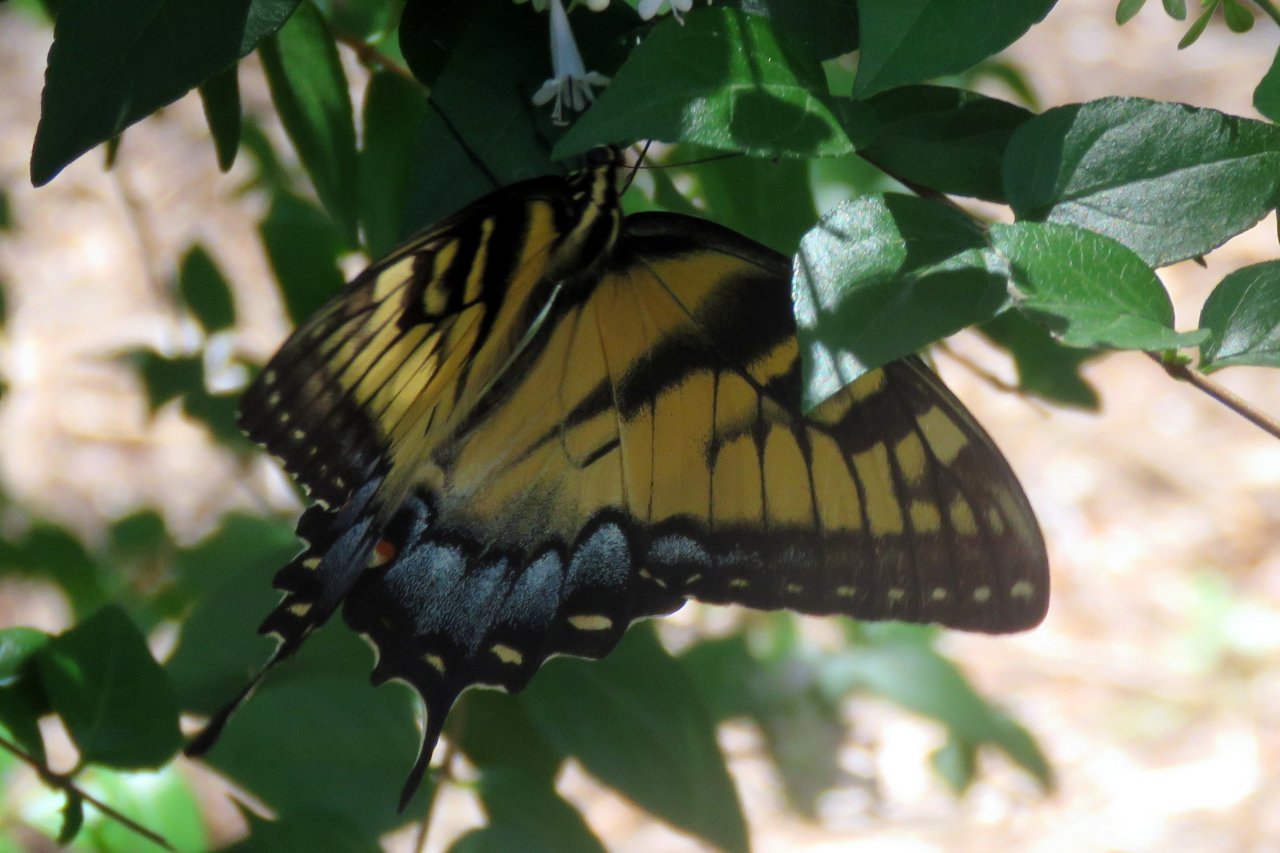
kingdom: Animalia
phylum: Arthropoda
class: Insecta
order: Lepidoptera
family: Papilionidae
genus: Pterourus
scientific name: Pterourus glaucus
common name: Eastern Tiger Swallowtail
